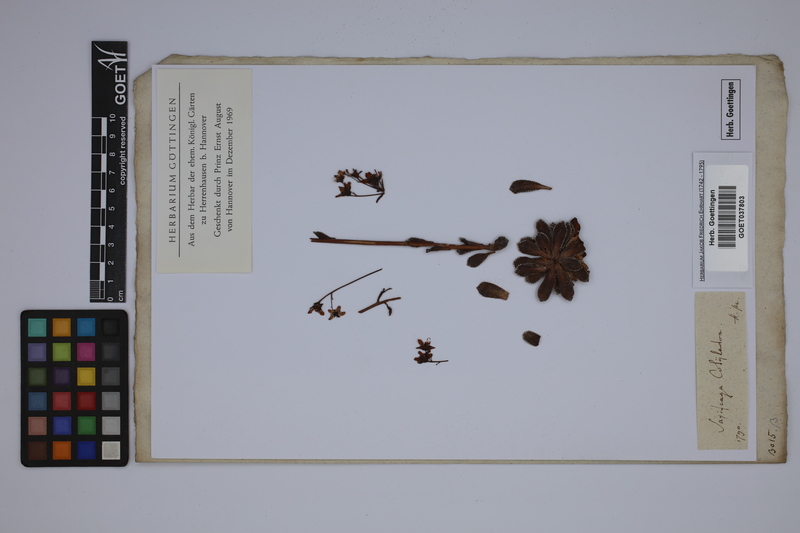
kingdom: Plantae
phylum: Tracheophyta
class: Magnoliopsida
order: Saxifragales
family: Saxifragaceae
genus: Saxifraga
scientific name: Saxifraga cotyledon
